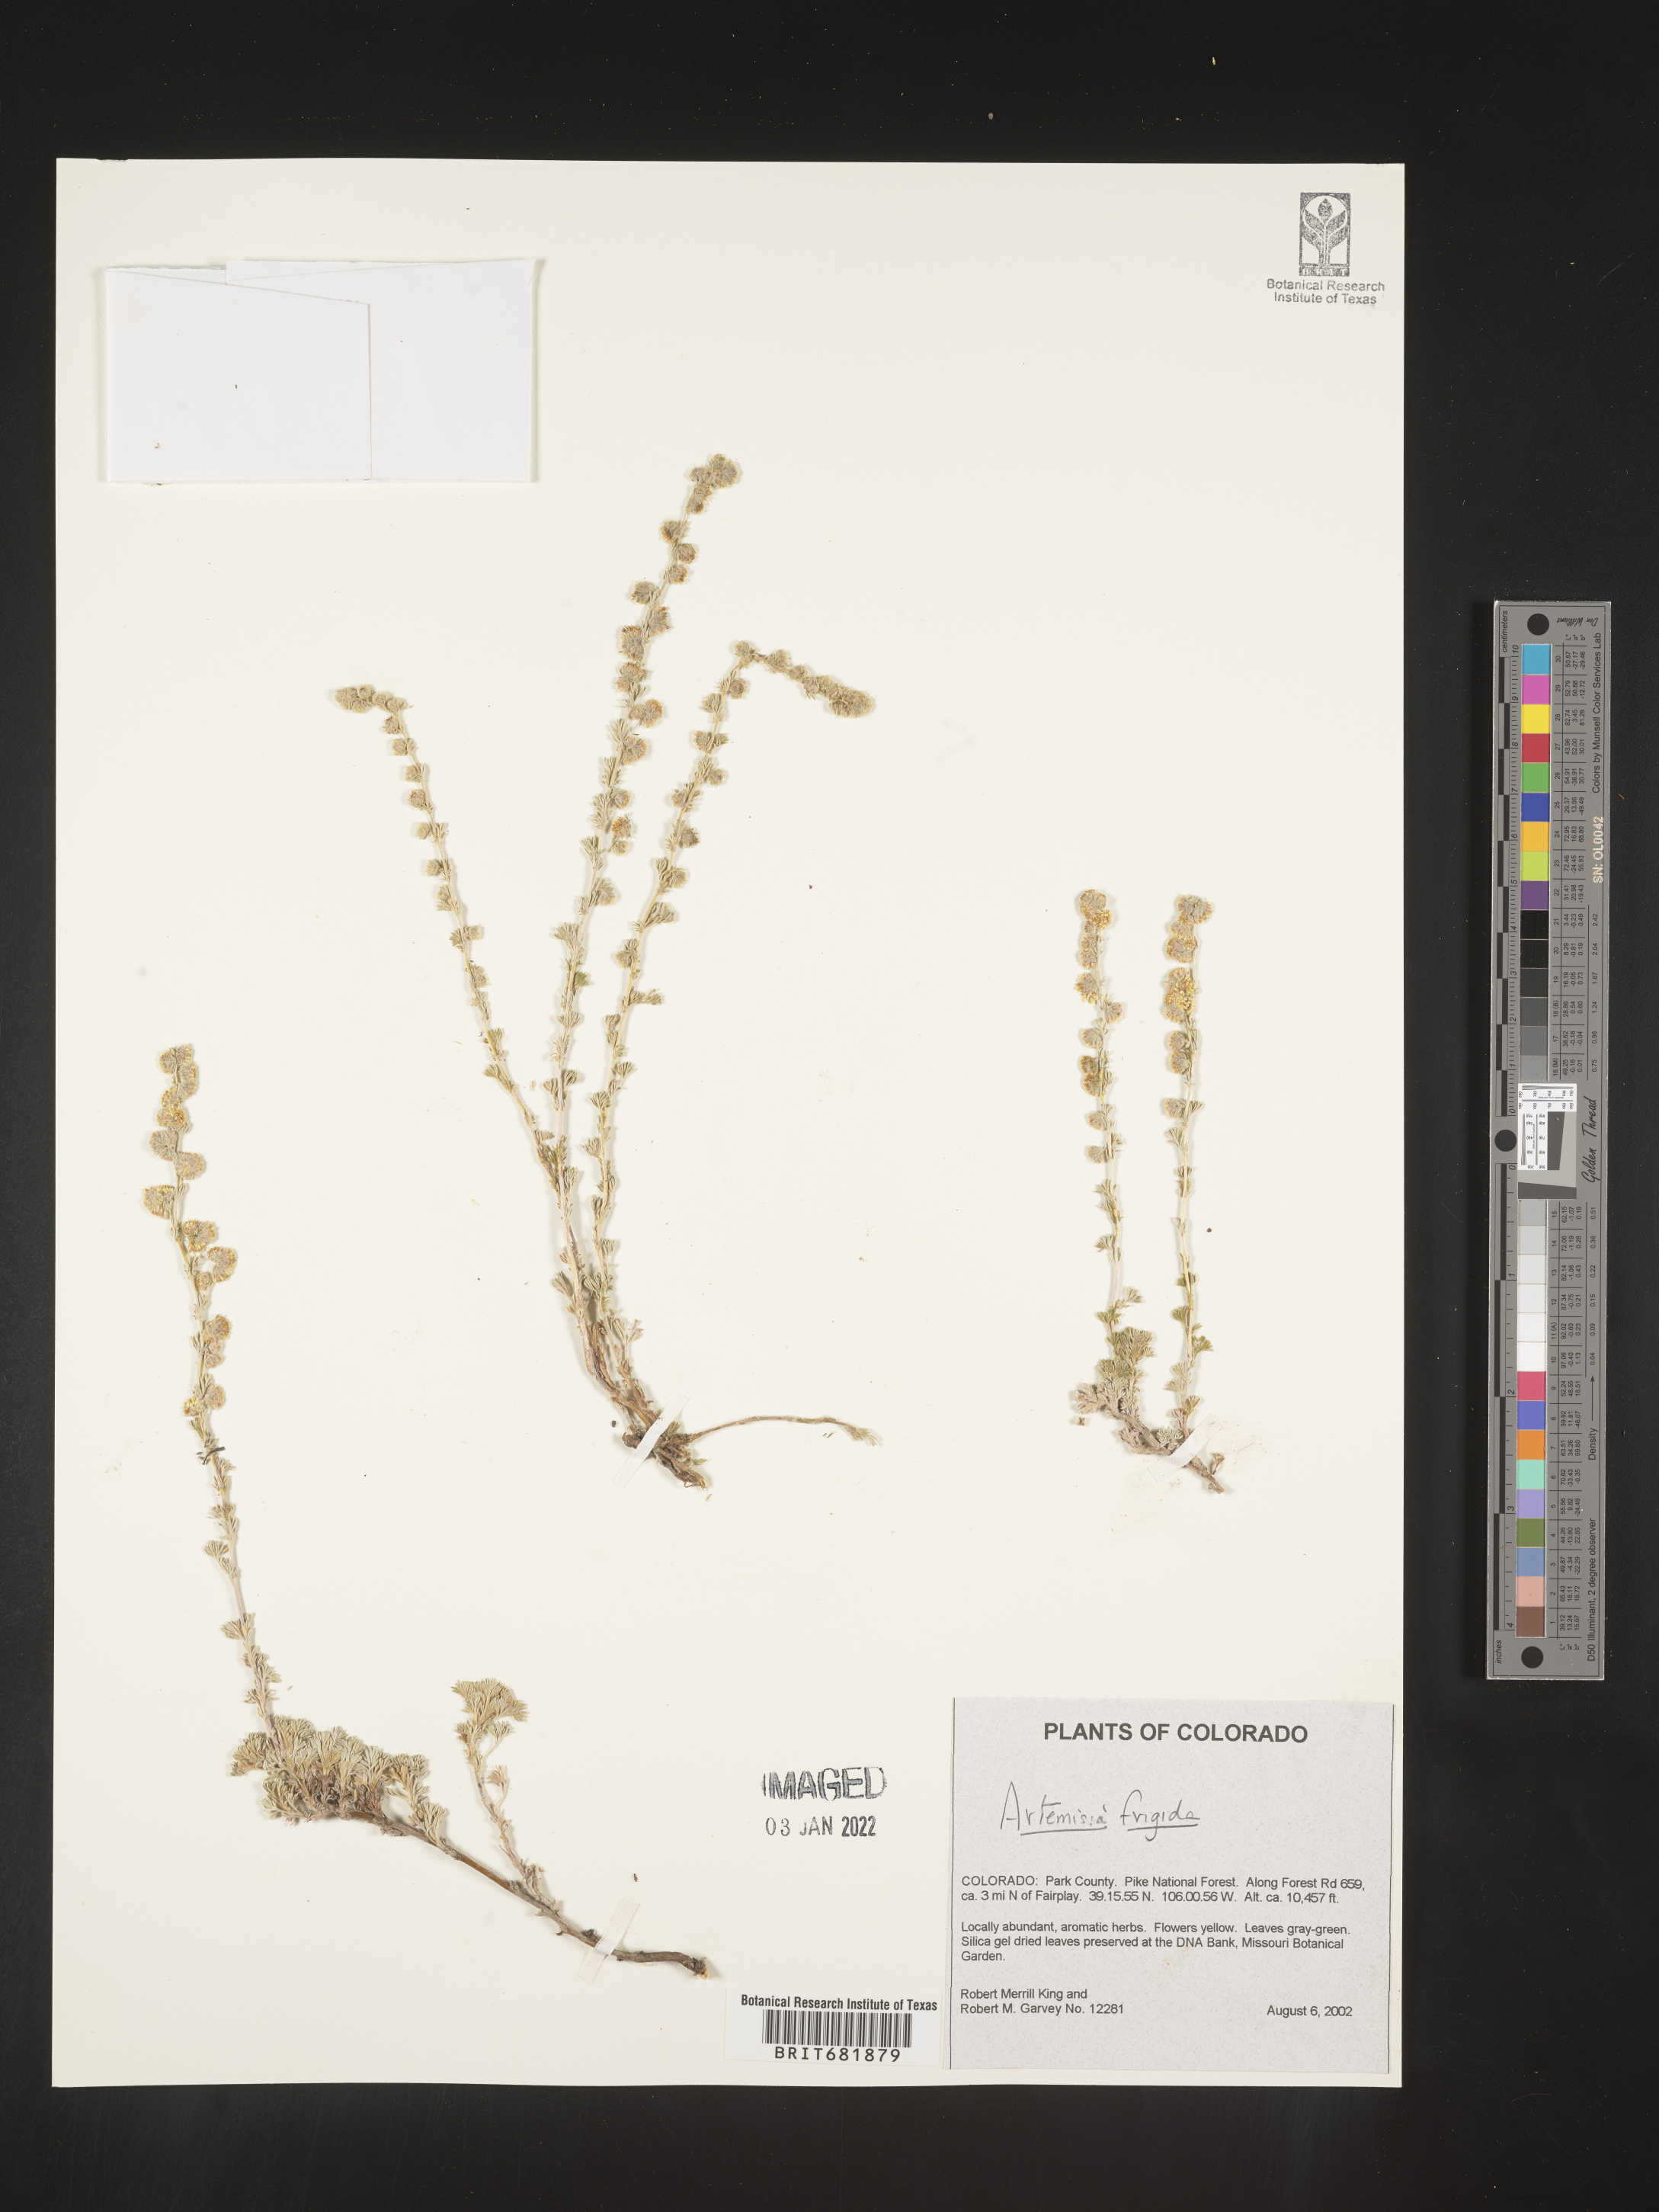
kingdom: Plantae
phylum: Tracheophyta
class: Magnoliopsida
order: Asterales
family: Asteraceae
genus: Artemisia
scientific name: Artemisia frigida
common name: Prairie sagewort
